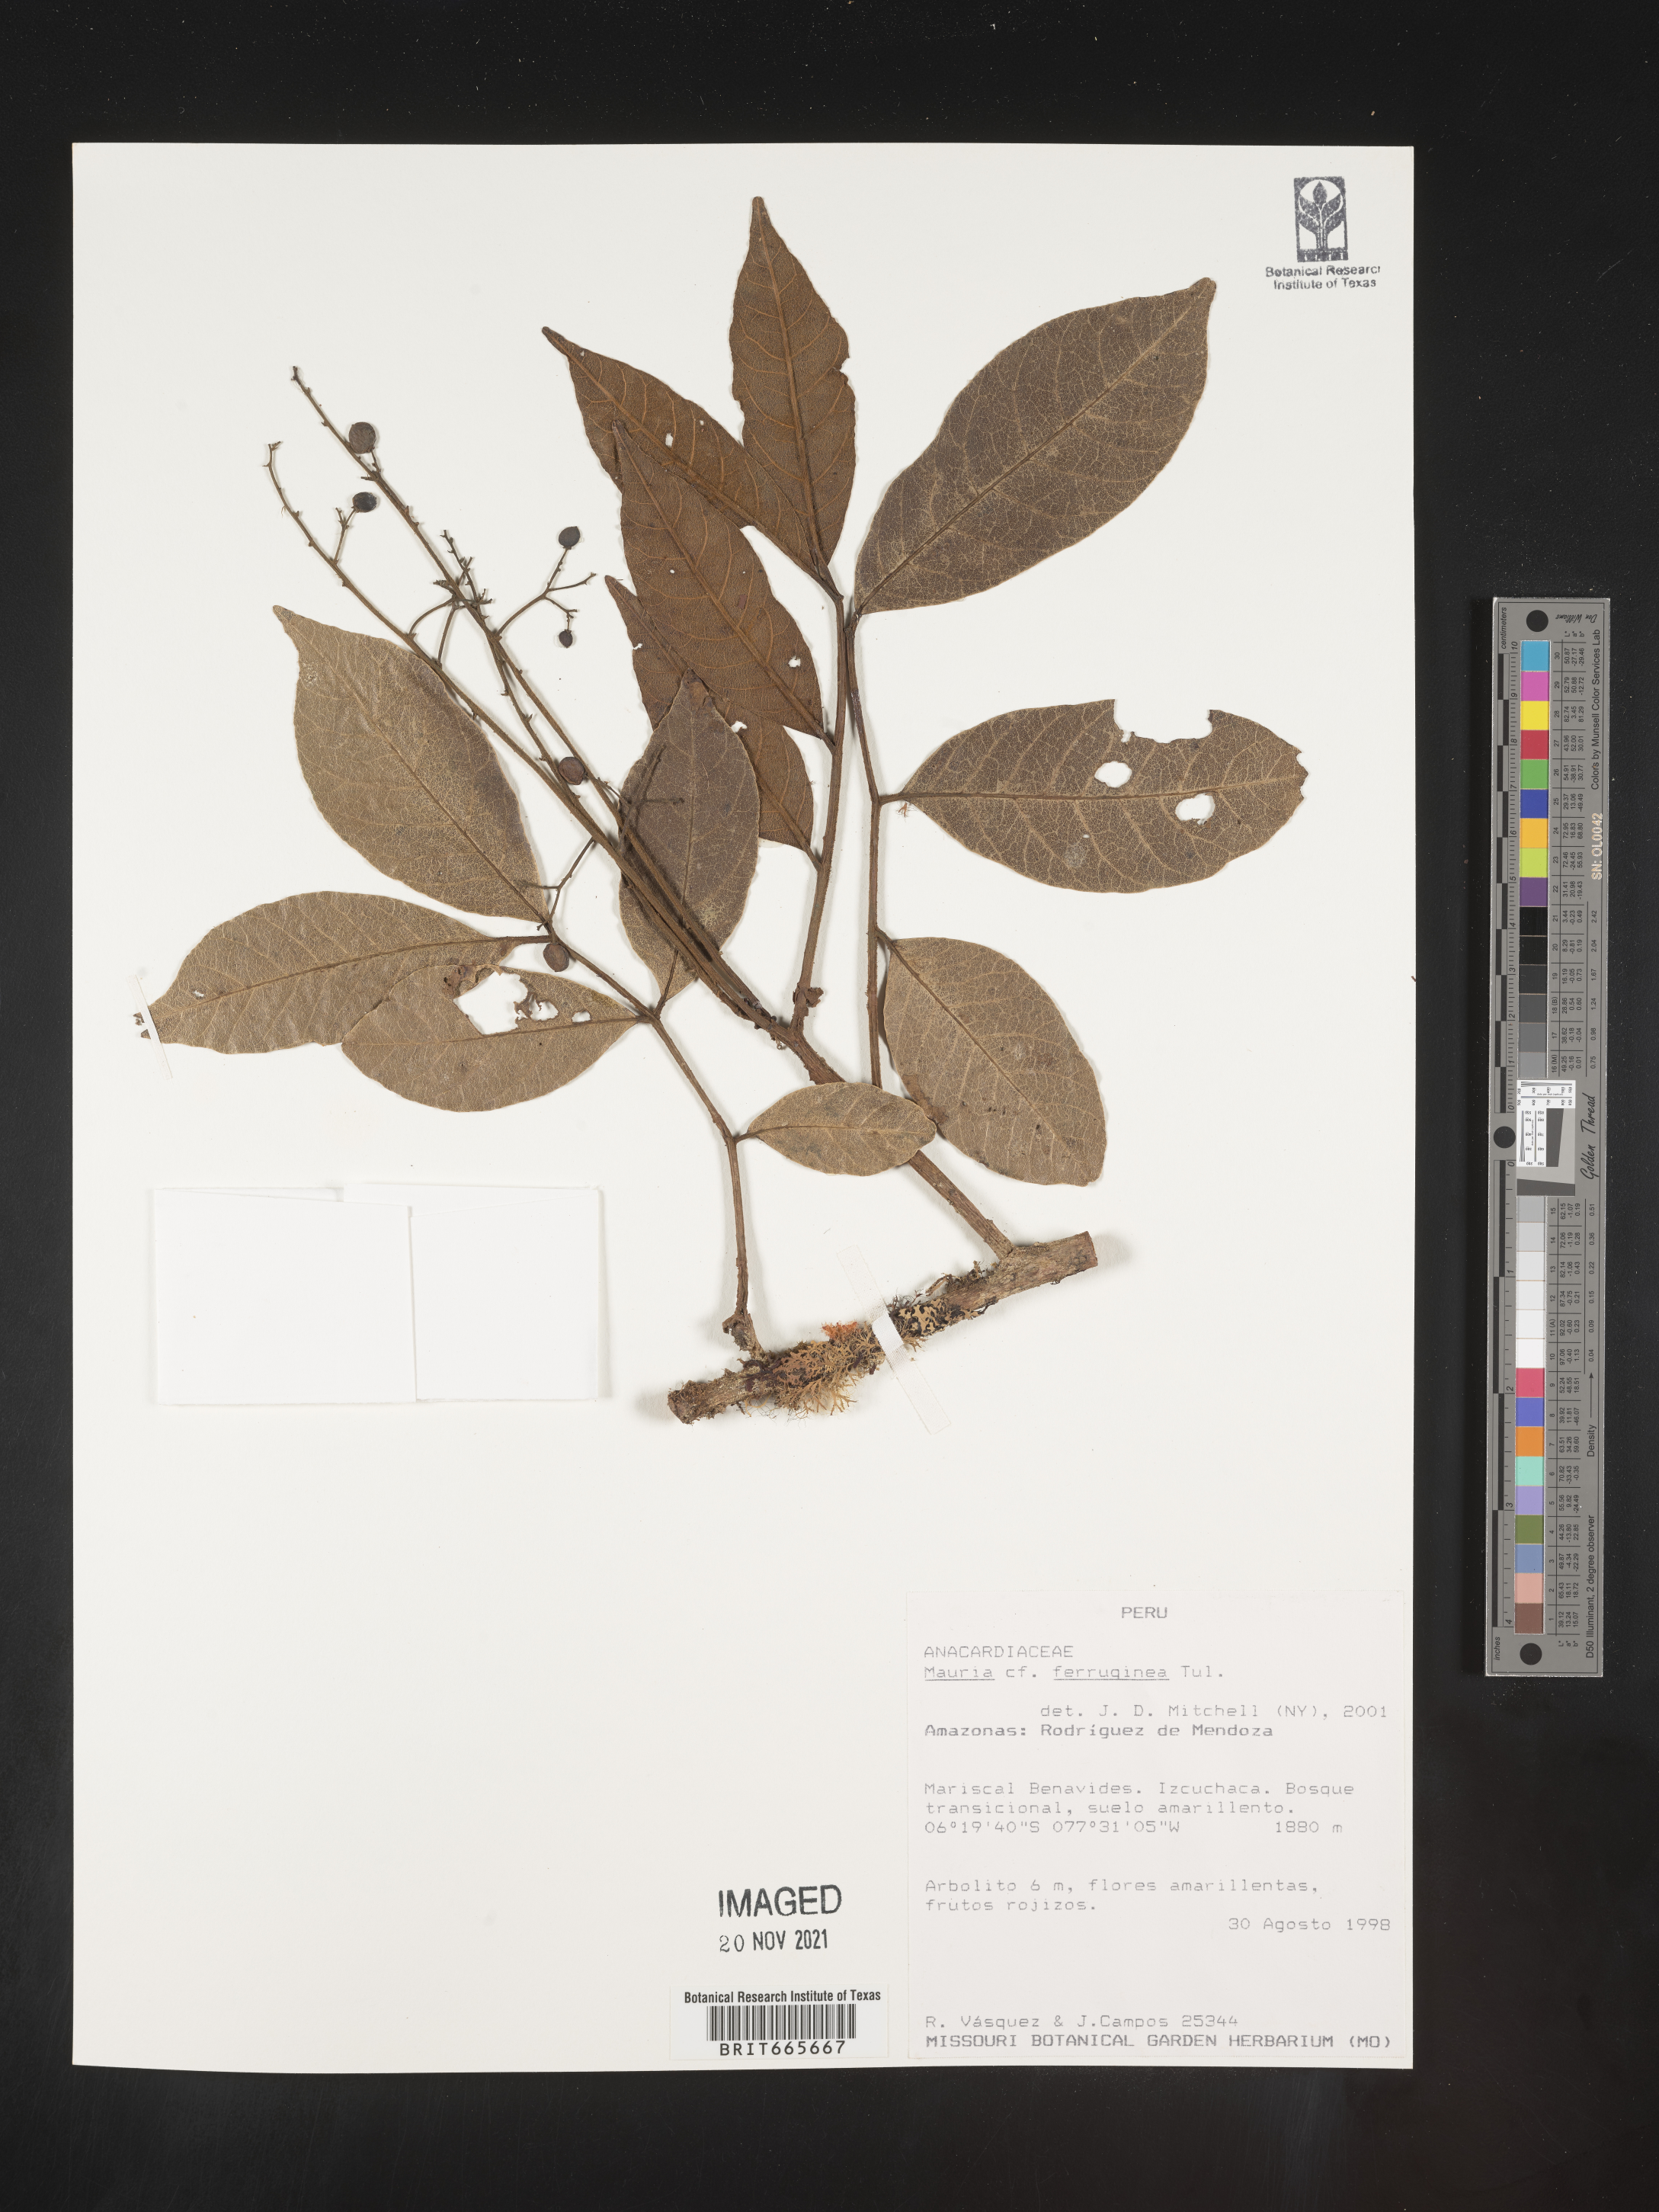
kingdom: Plantae
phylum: Tracheophyta
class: Magnoliopsida
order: Sapindales
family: Anacardiaceae
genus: Mauria
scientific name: Mauria
